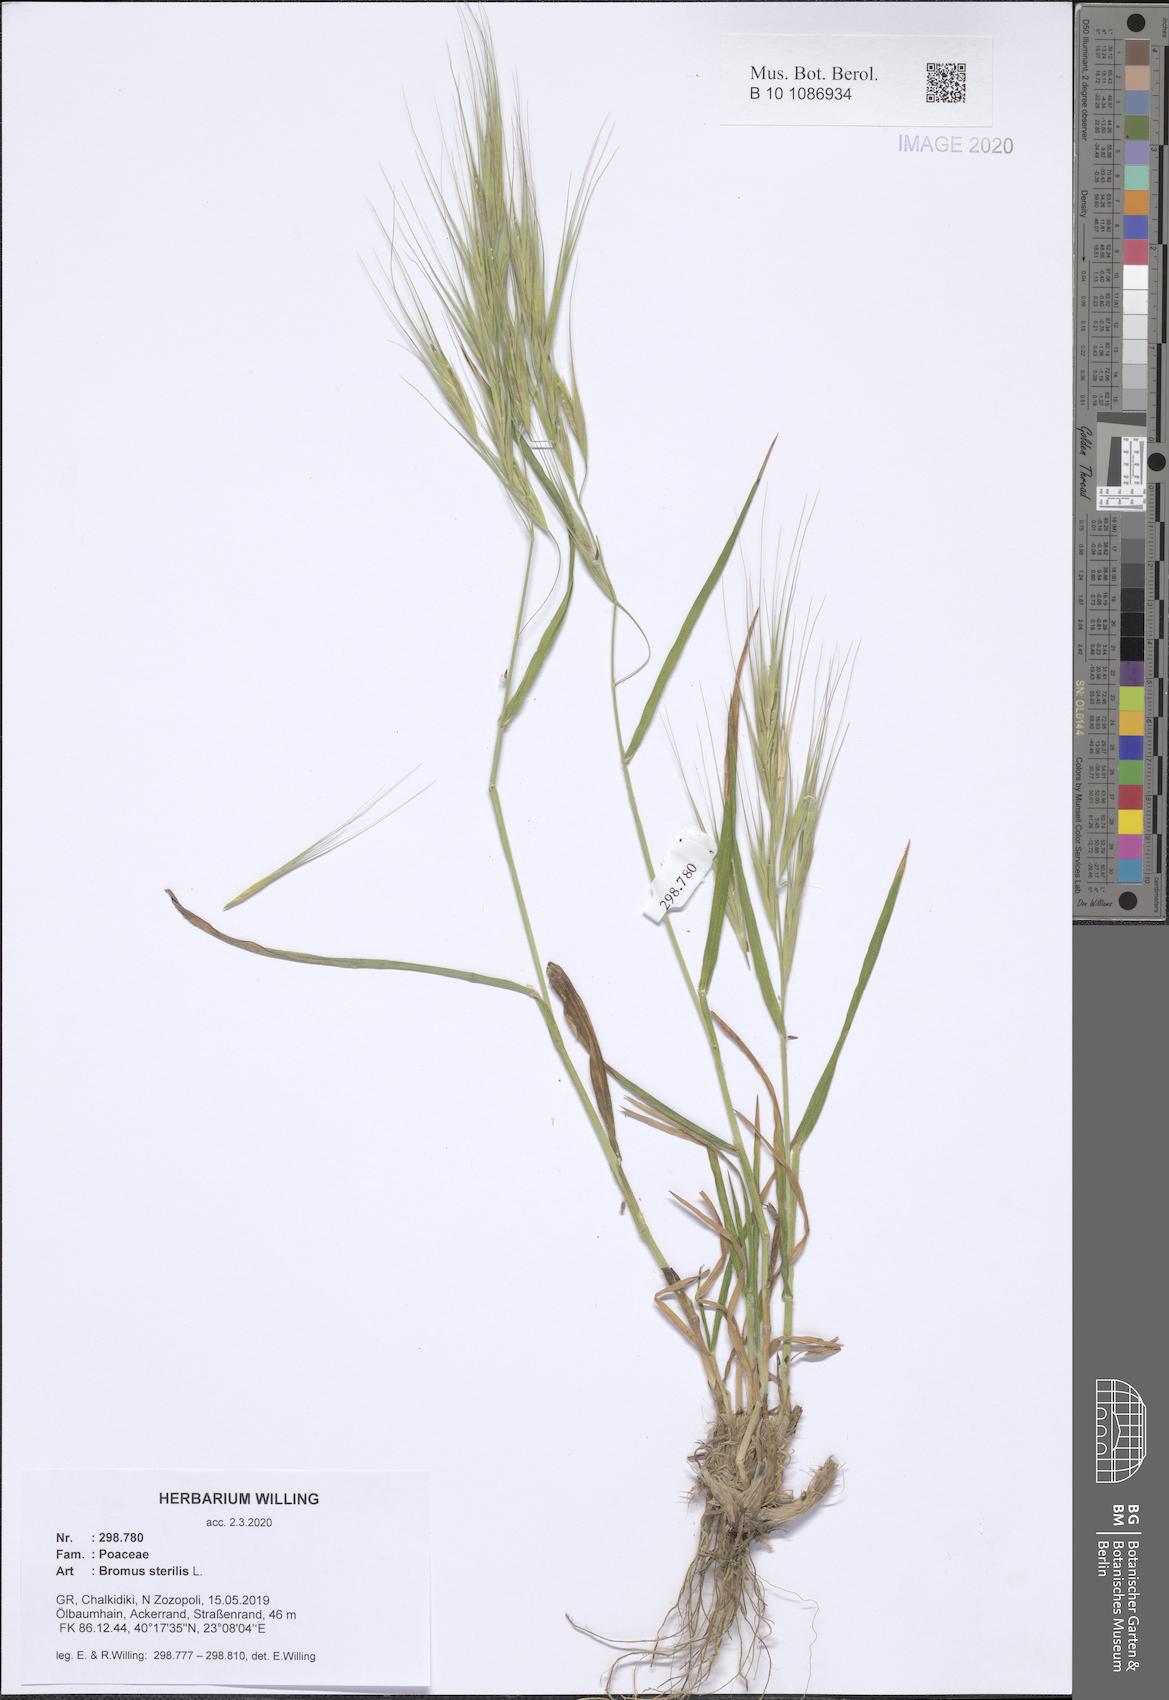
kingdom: Plantae
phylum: Tracheophyta
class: Liliopsida
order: Poales
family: Poaceae
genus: Bromus
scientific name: Bromus sterilis
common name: Poverty brome
